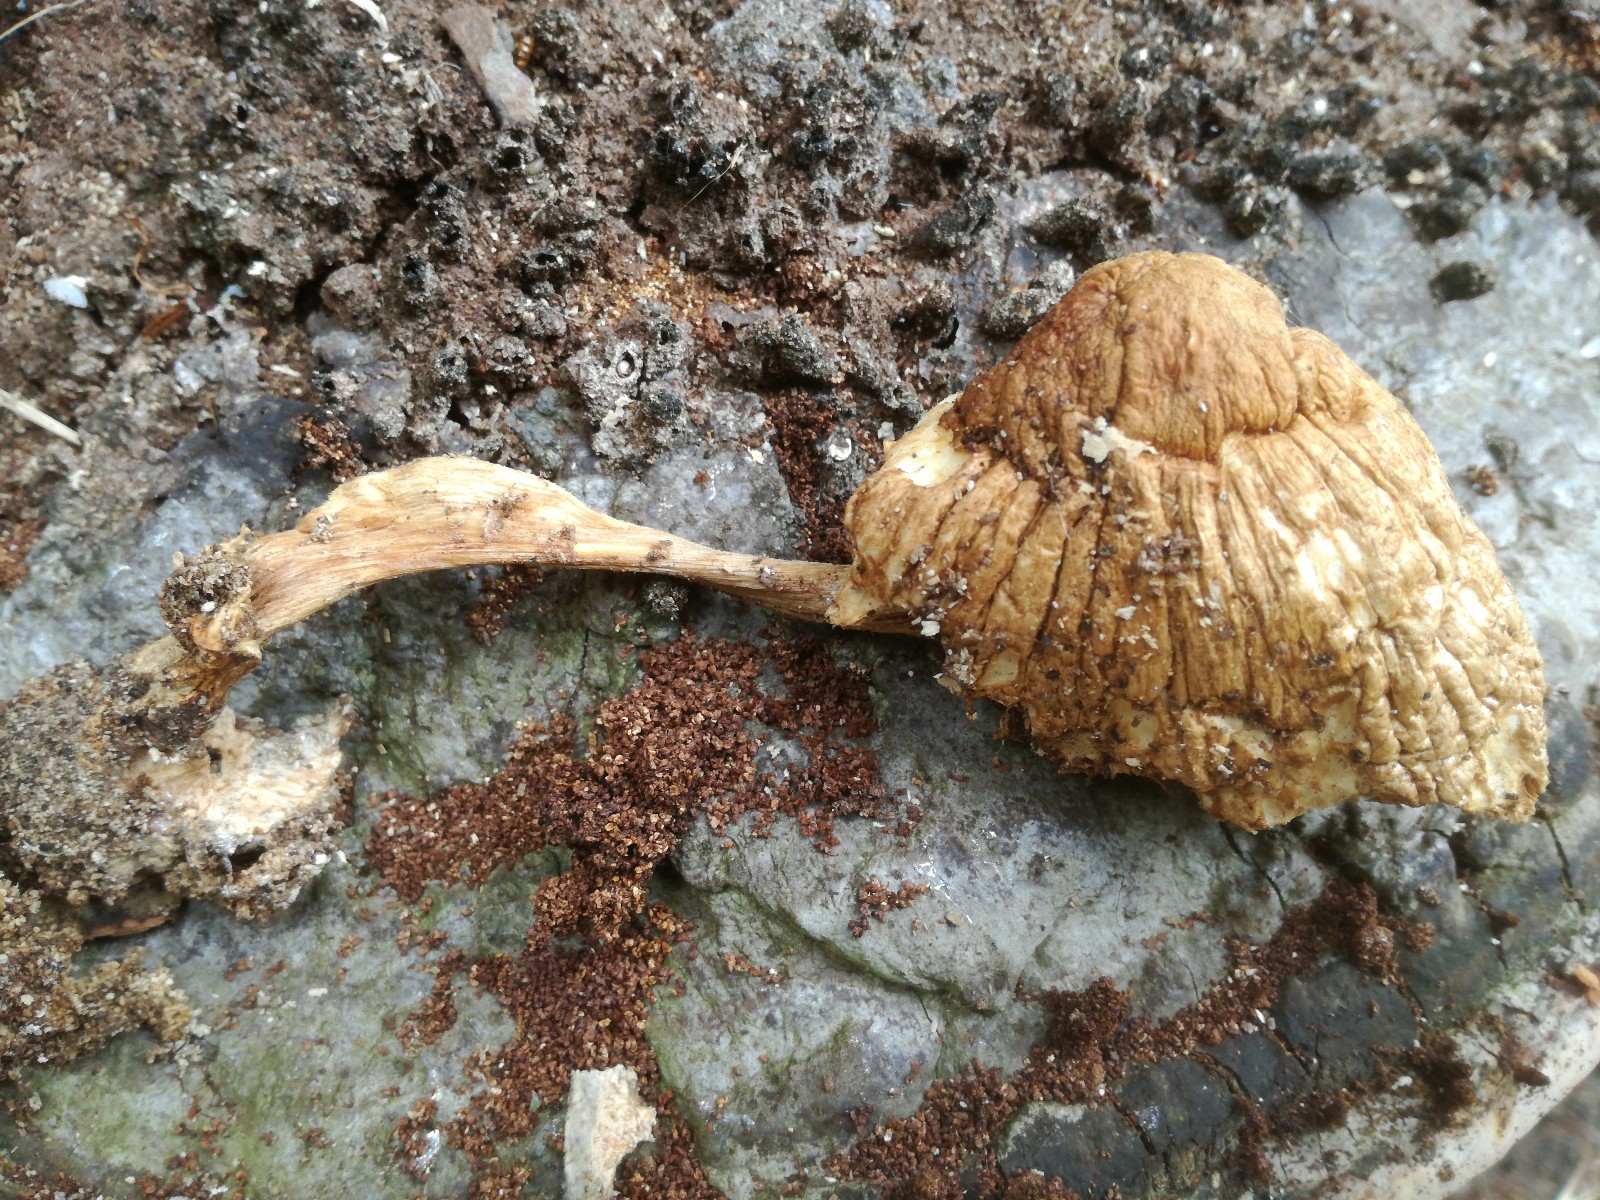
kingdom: Fungi
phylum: Basidiomycota
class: Agaricomycetes
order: Agaricales
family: Pluteaceae
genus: Volvariella
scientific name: Volvariella bombycina
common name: silkehåret posesvamp
